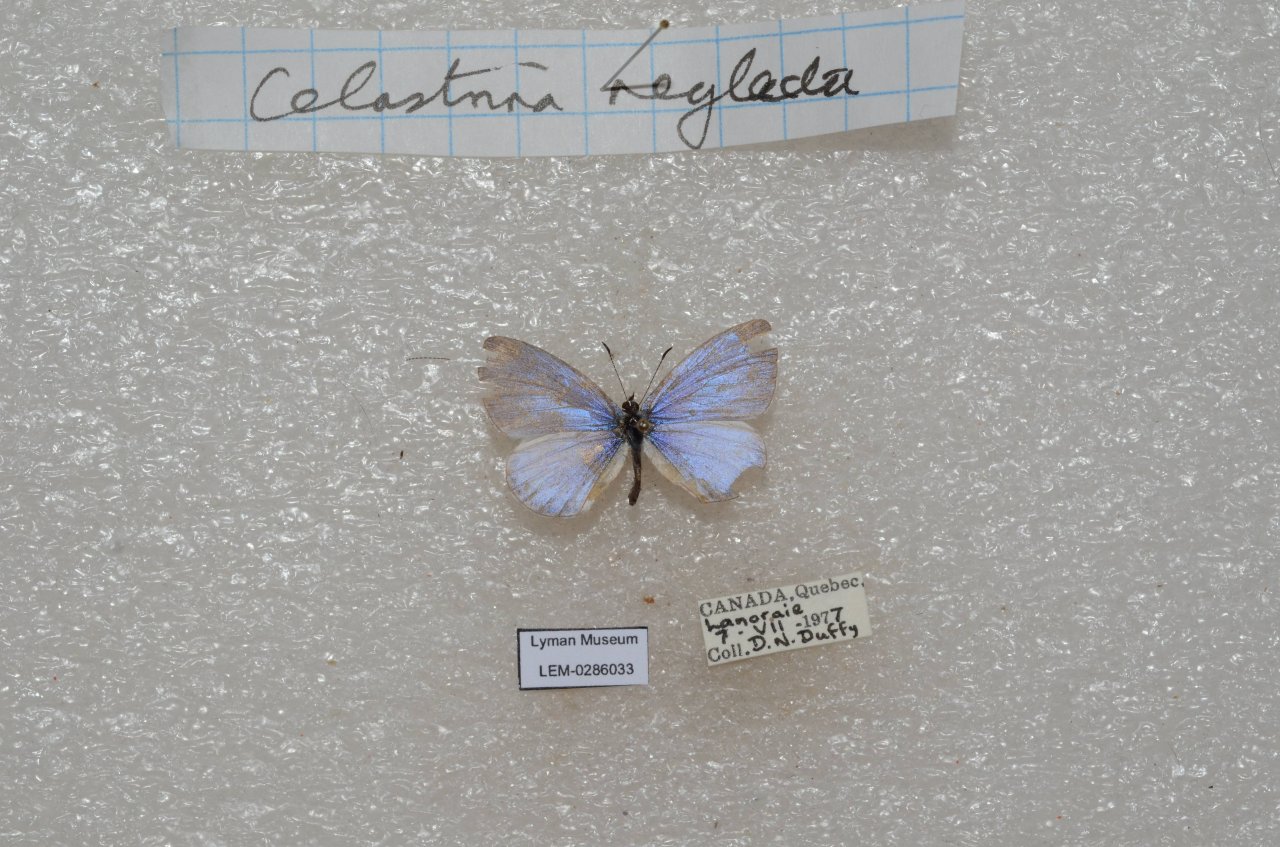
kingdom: Animalia
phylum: Arthropoda
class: Insecta
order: Lepidoptera
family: Lycaenidae
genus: Celastrina
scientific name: Celastrina lucia
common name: Northern Spring Azure
